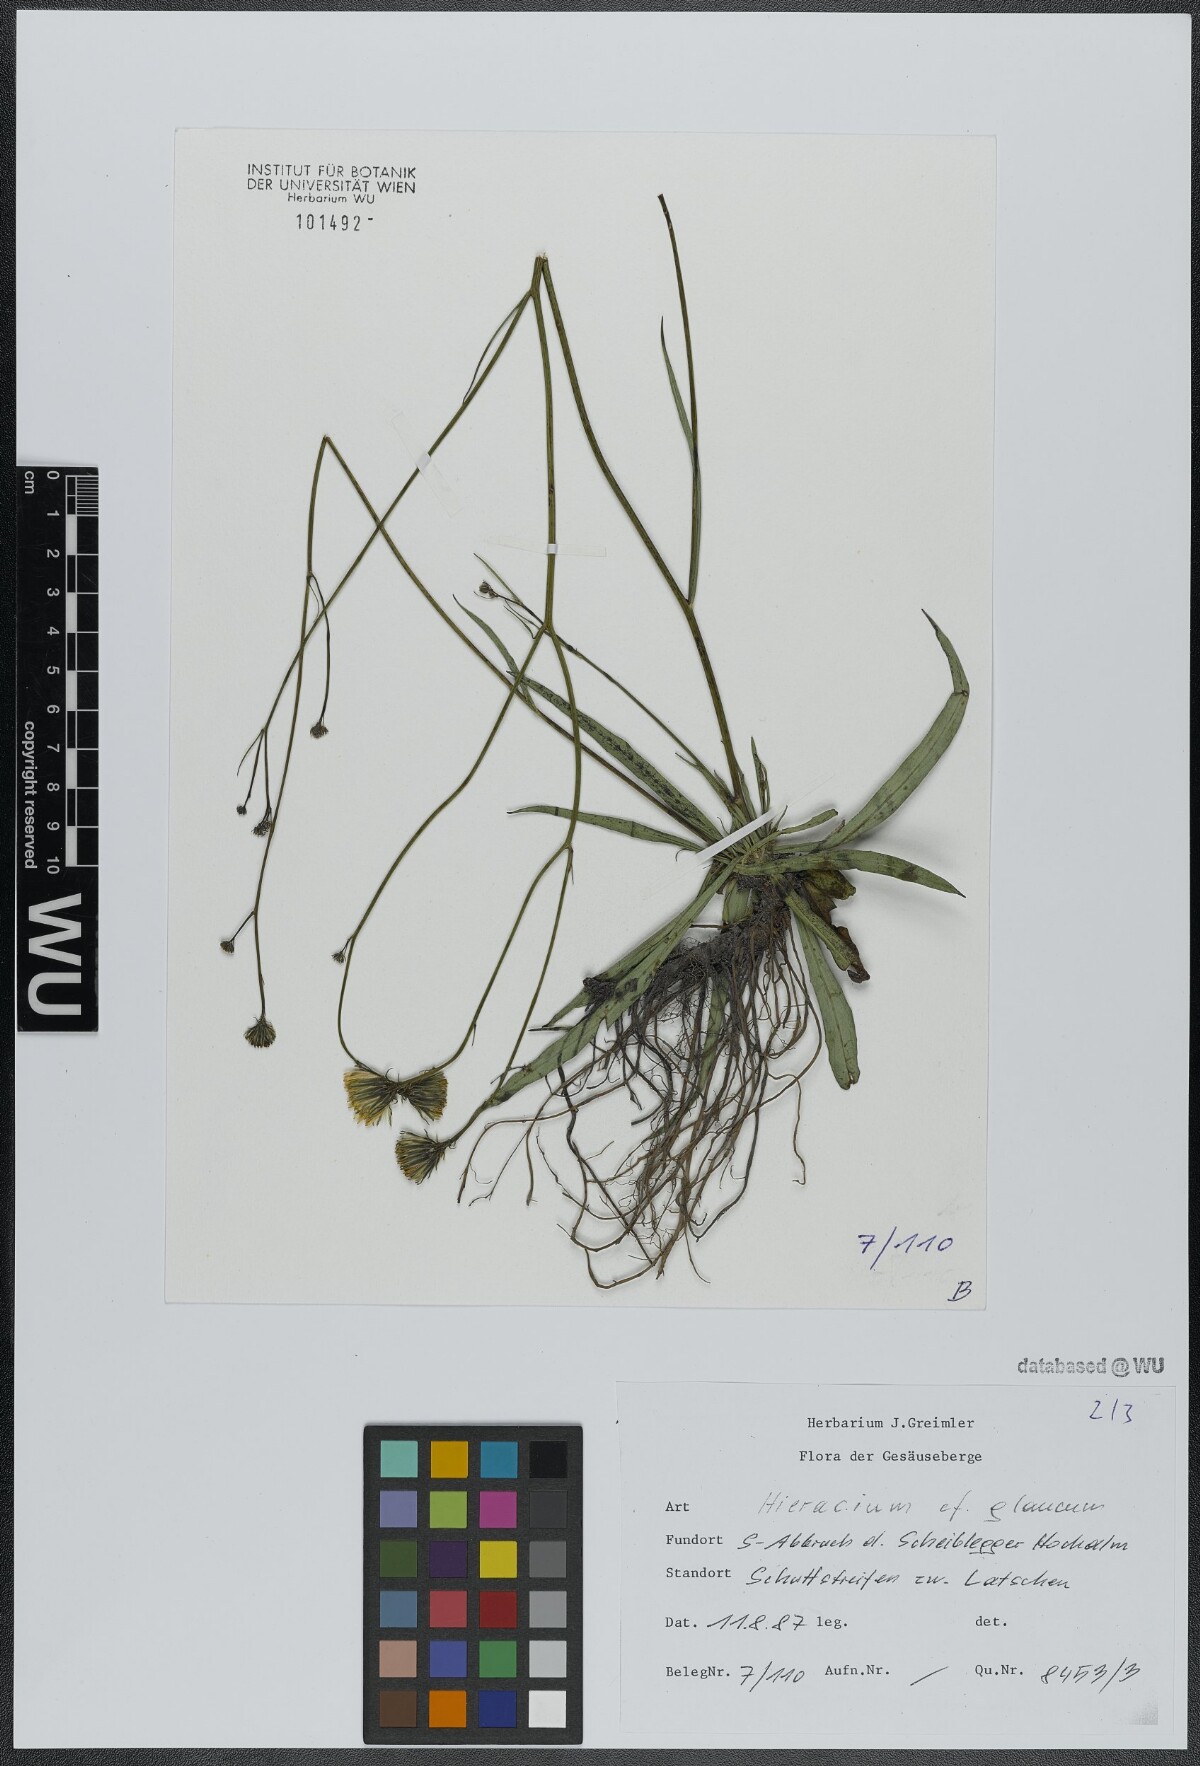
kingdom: Plantae
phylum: Tracheophyta
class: Magnoliopsida
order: Asterales
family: Asteraceae
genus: Hieracium
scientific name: Hieracium glaucum
